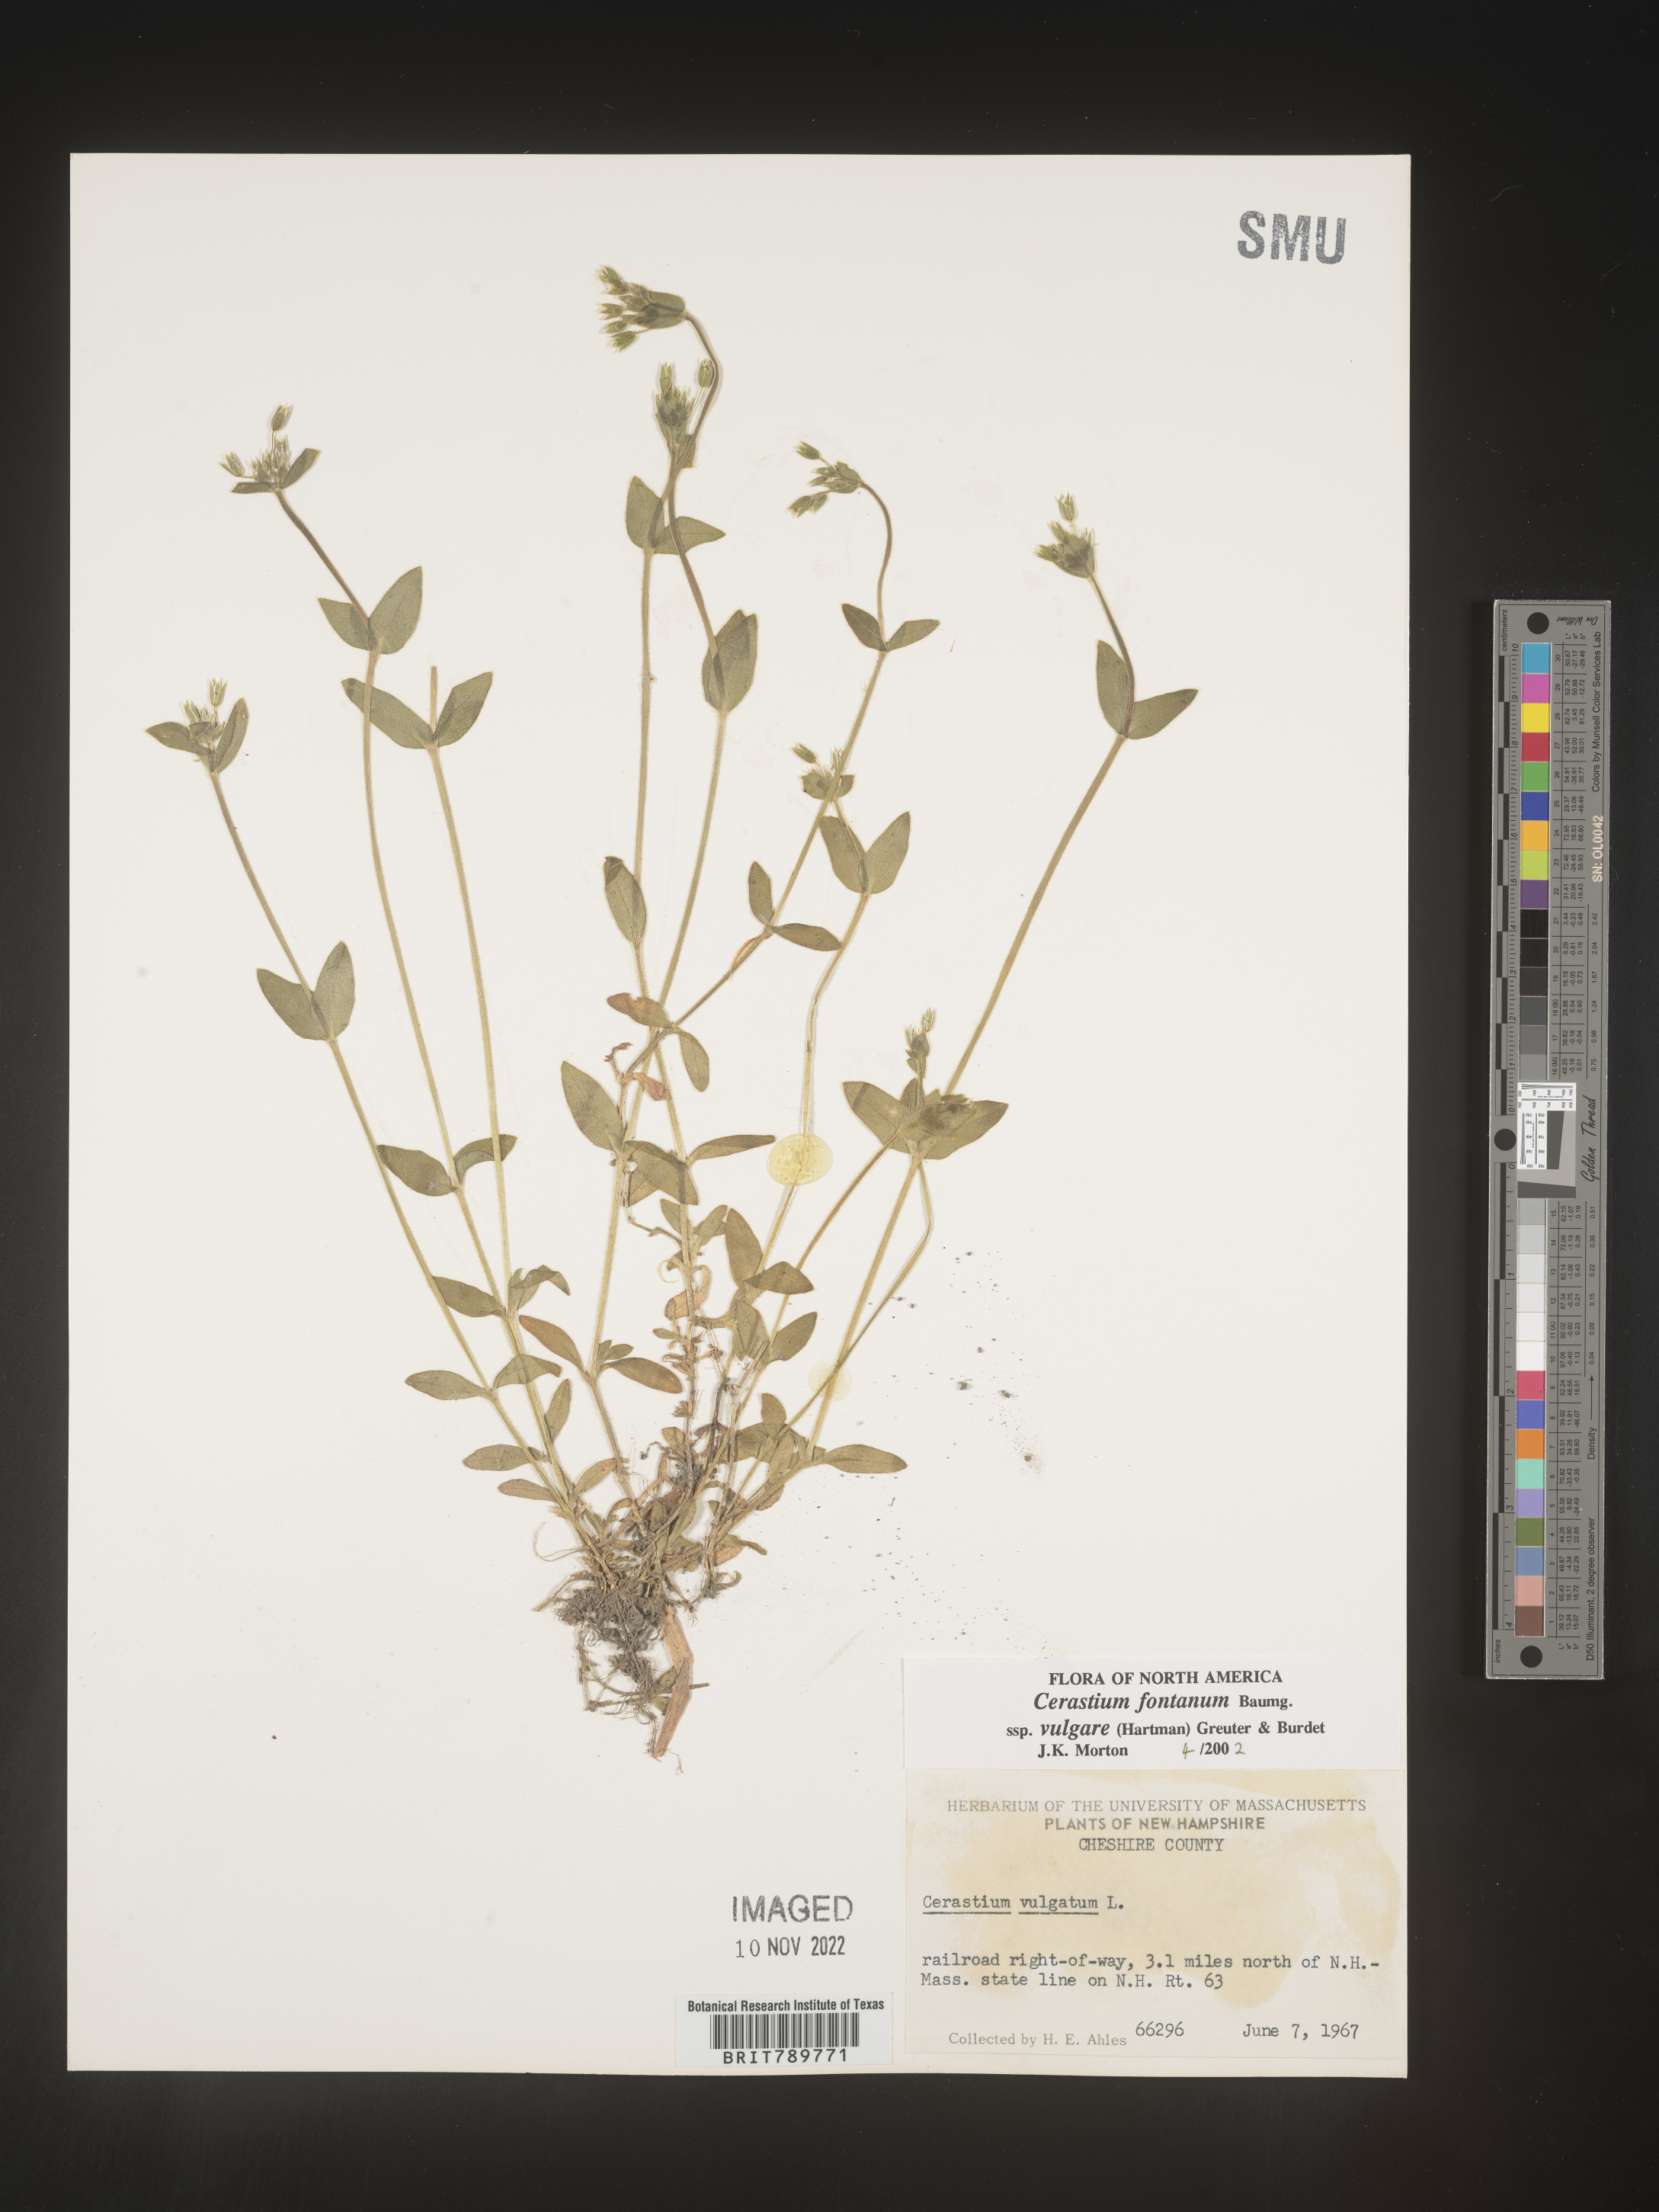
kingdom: Plantae
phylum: Tracheophyta
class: Magnoliopsida
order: Caryophyllales
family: Caryophyllaceae
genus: Cerastium
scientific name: Cerastium fontanum
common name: Common mouse-ear
